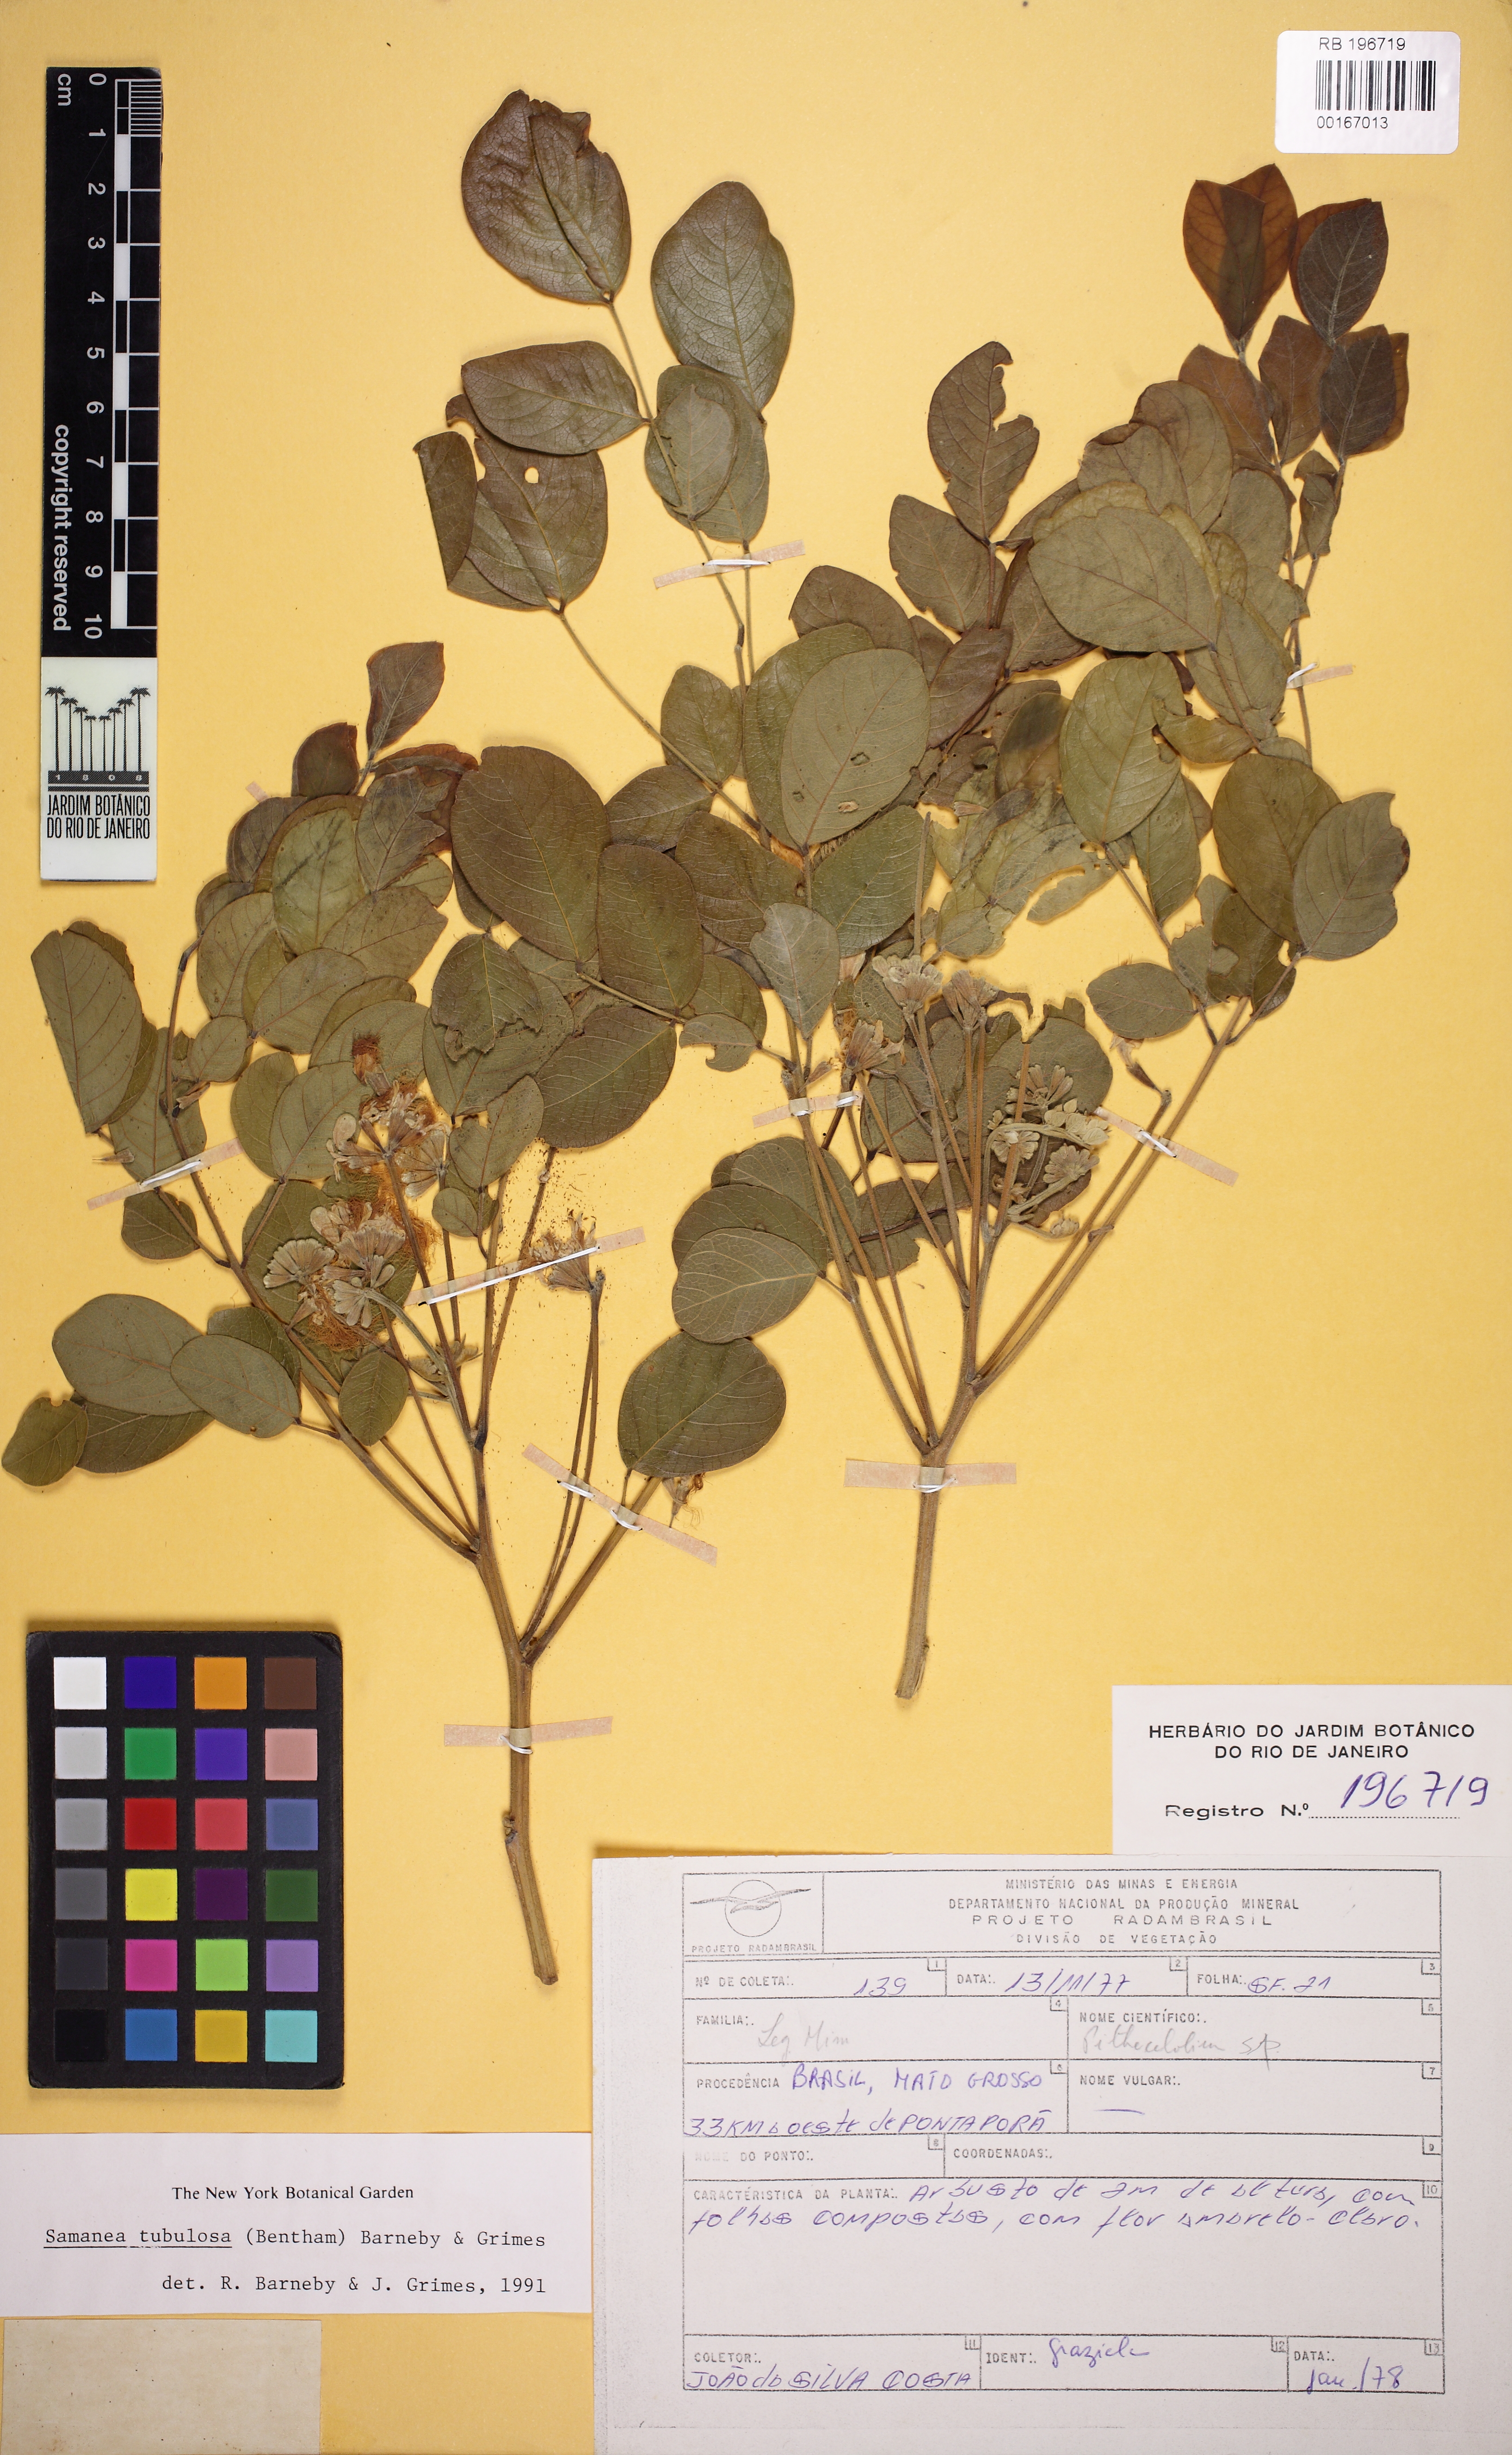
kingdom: Plantae
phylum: Tracheophyta
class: Magnoliopsida
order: Fabales
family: Fabaceae
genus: Samanea
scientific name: Samanea tubulosa
